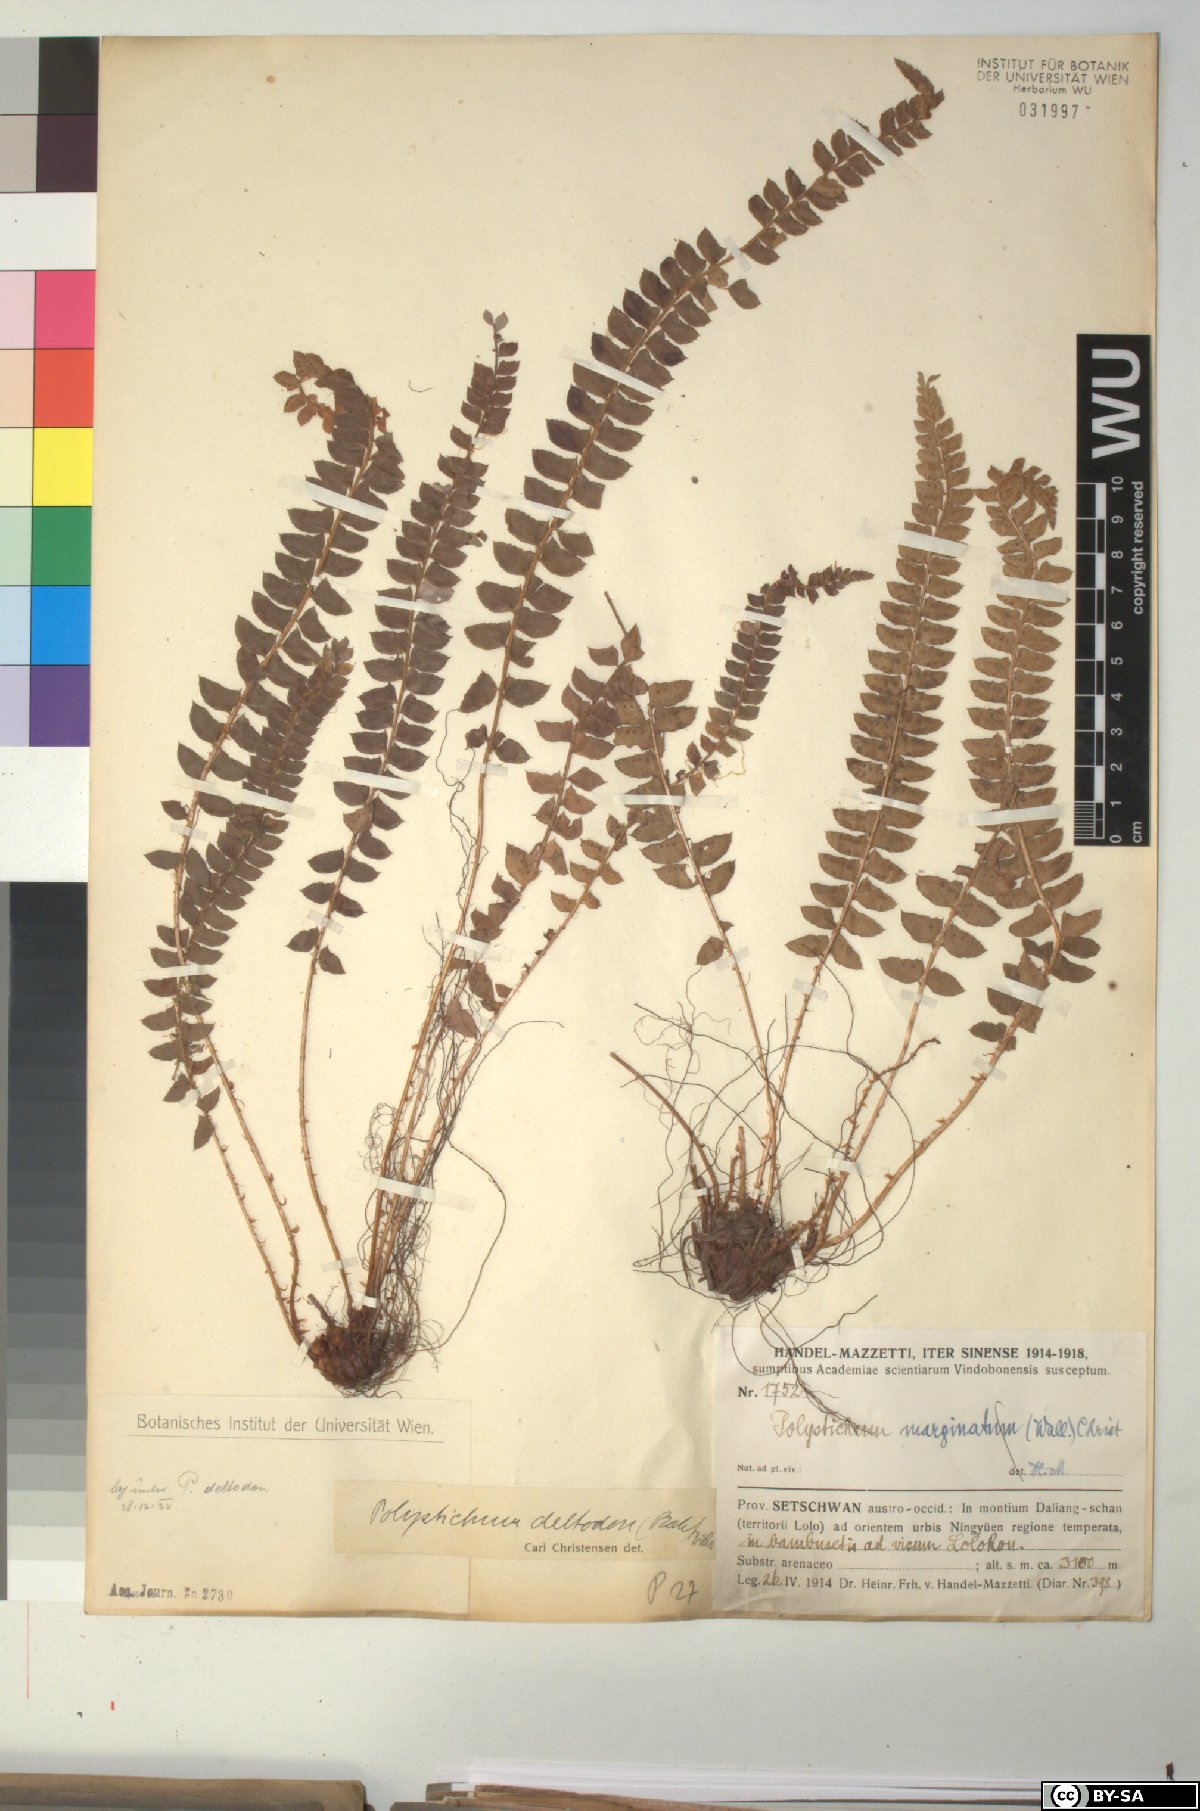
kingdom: Plantae
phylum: Tracheophyta
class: Polypodiopsida
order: Polypodiales
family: Dryopteridaceae
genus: Polystichum
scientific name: Polystichum deltodon
